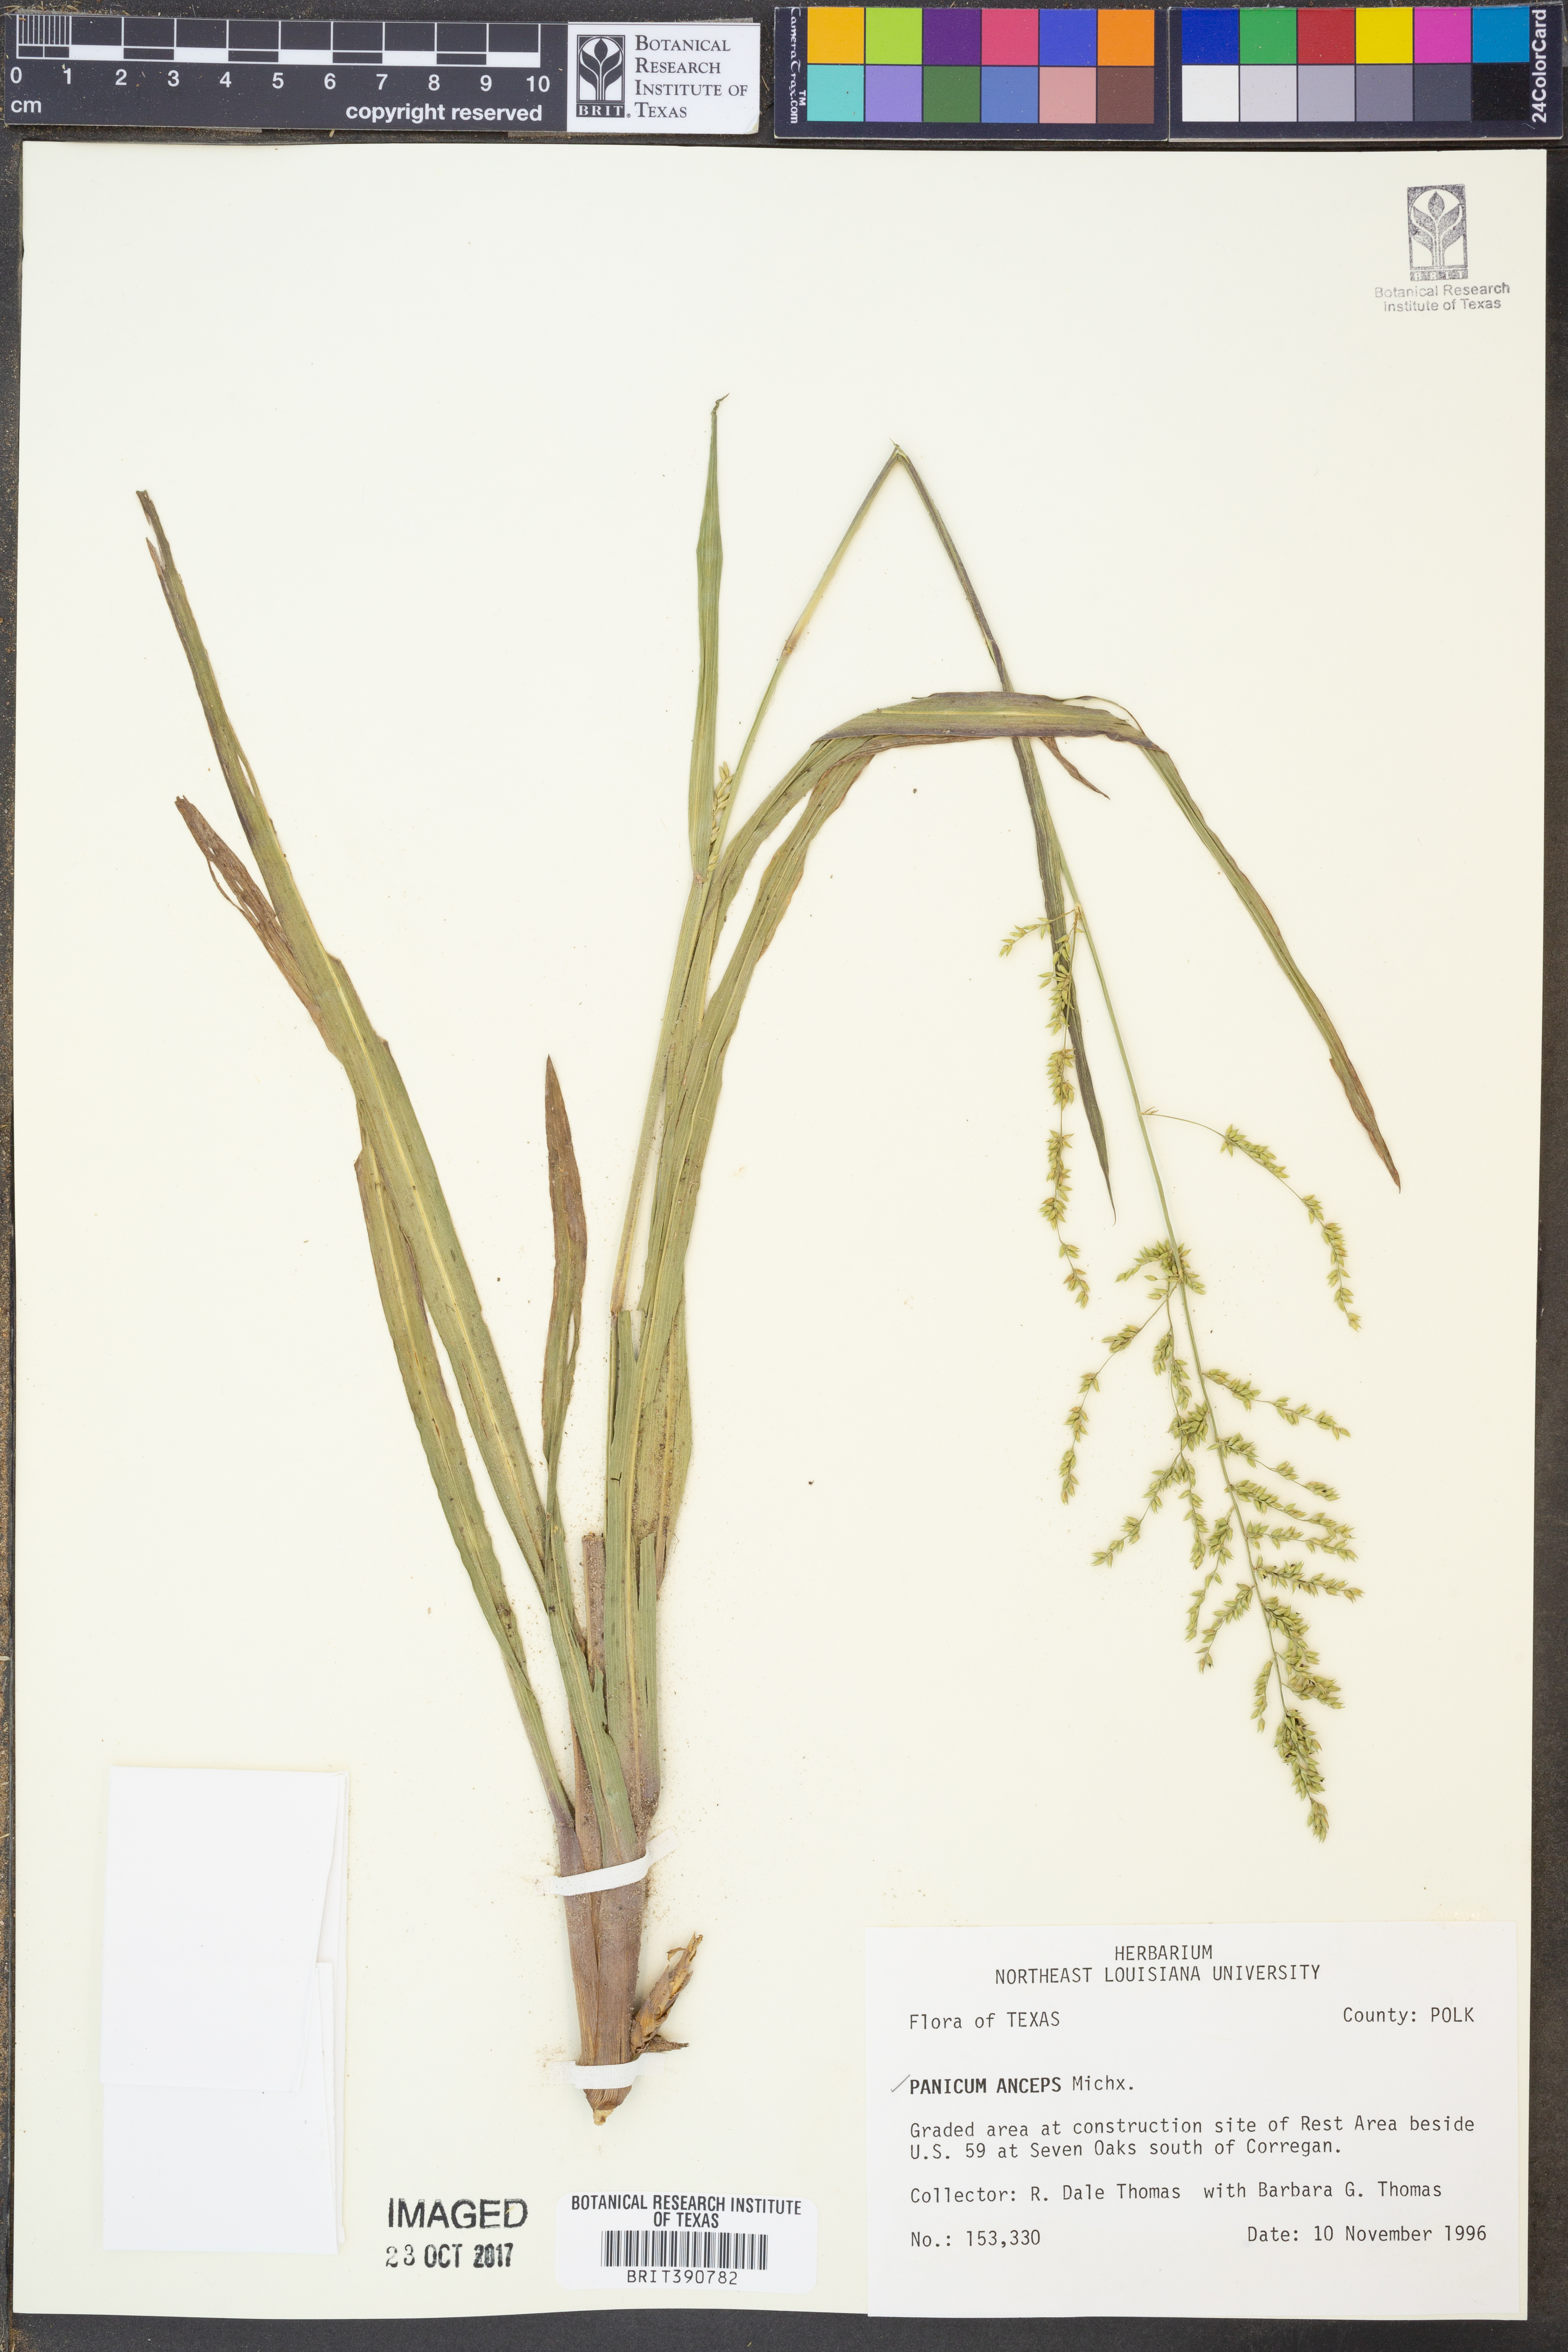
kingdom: Plantae
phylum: Tracheophyta
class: Liliopsida
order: Poales
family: Poaceae
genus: Coleataenia
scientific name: Coleataenia anceps
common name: Beaked panic grass
